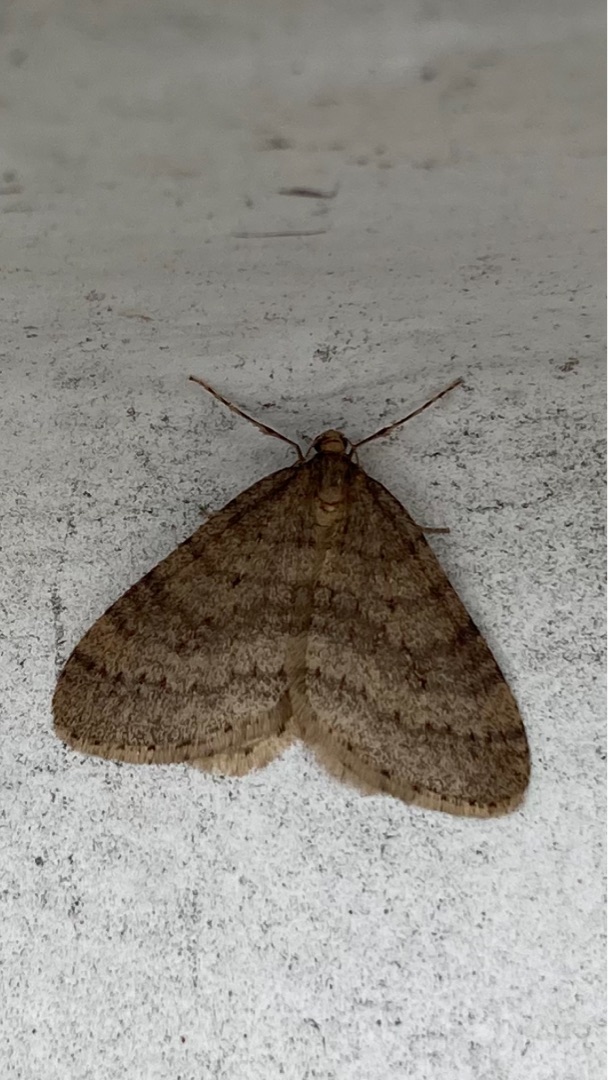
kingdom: Animalia
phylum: Arthropoda
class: Insecta
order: Lepidoptera
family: Geometridae
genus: Operophtera
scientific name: Operophtera brumata
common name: Lille frostmåler
